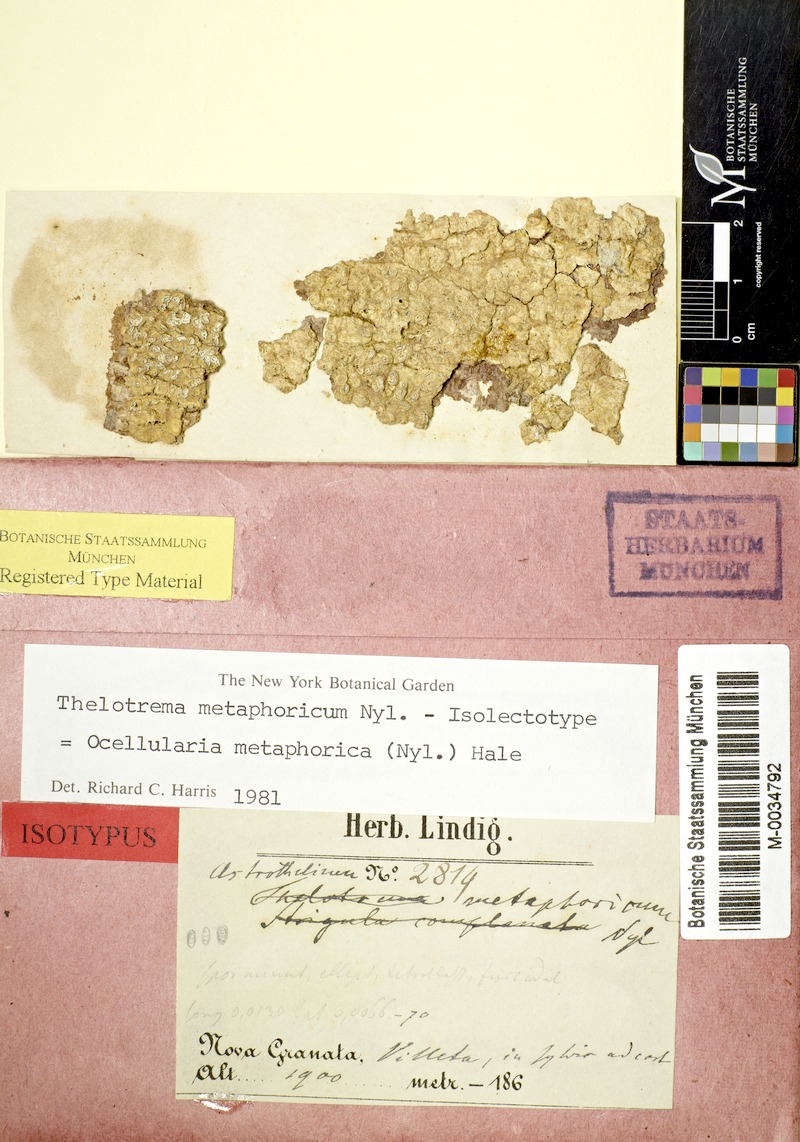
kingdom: Fungi
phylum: Ascomycota
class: Lecanoromycetes
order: Ostropales
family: Graphidaceae
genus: Stegobolus
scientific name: Stegobolus metaphoricus
